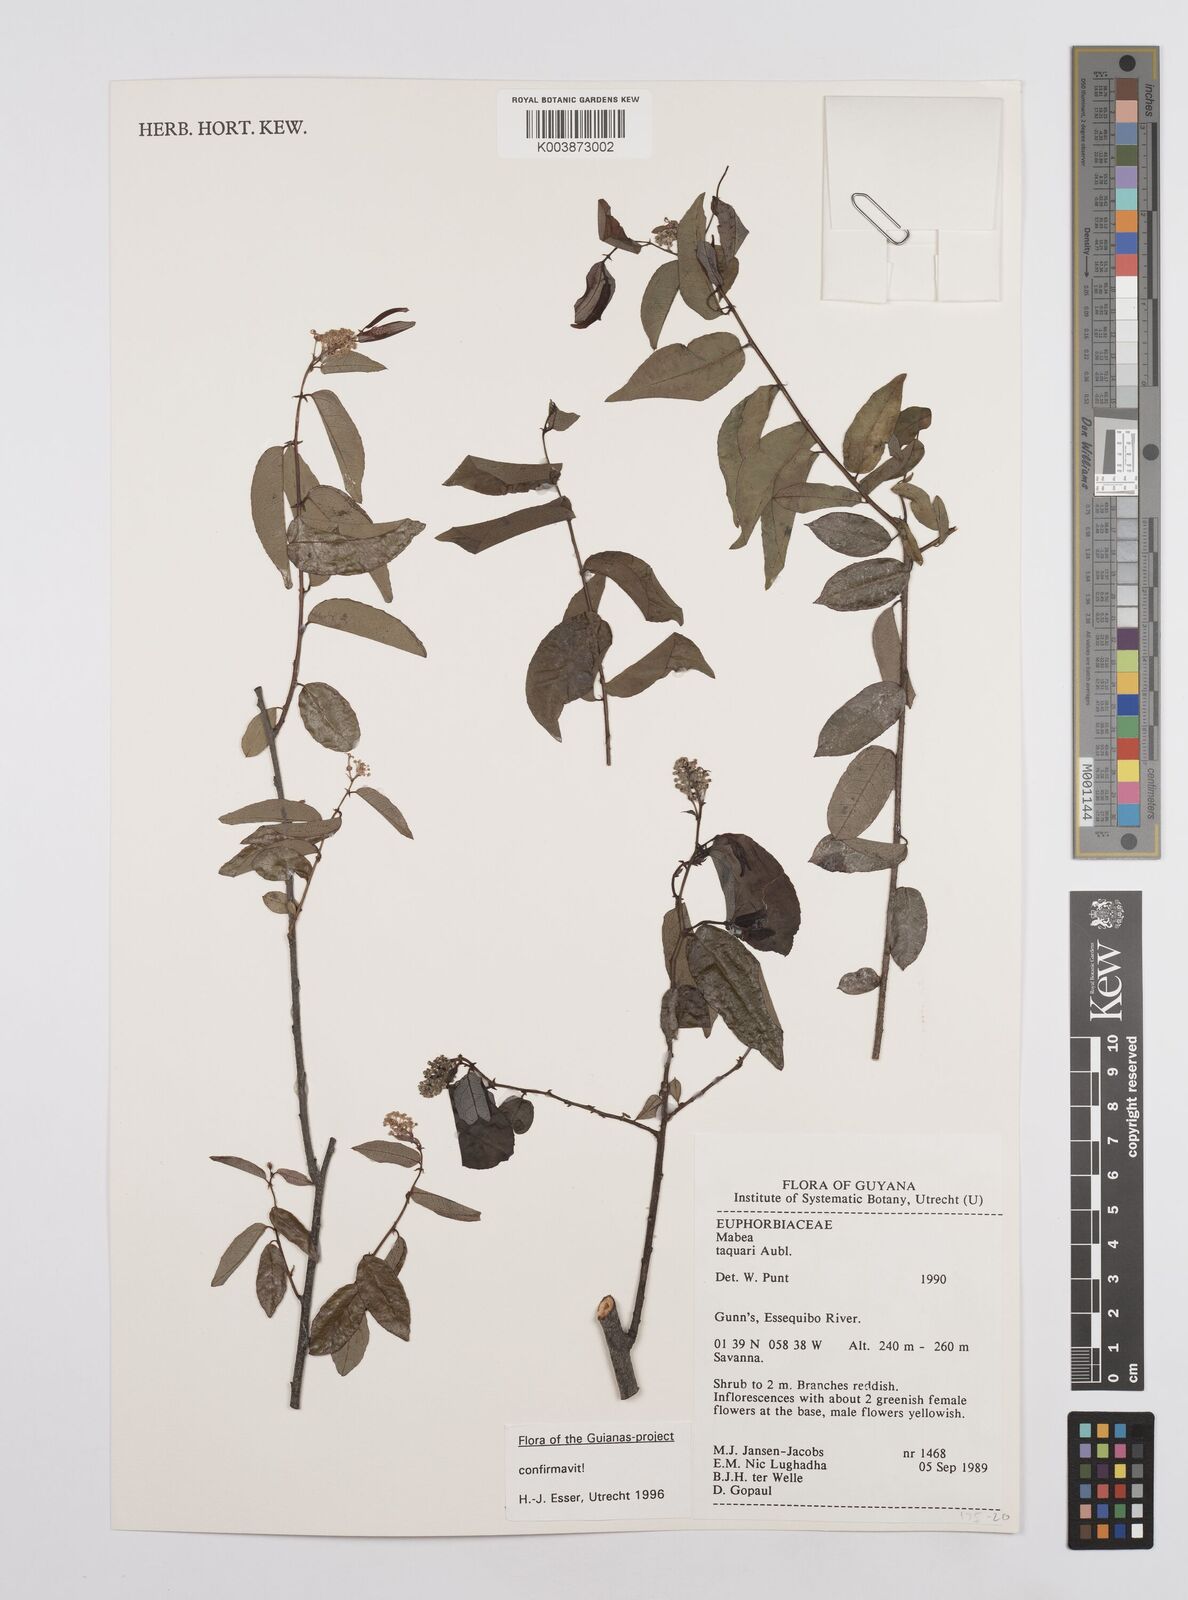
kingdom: Plantae
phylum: Tracheophyta
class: Magnoliopsida
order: Malpighiales
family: Euphorbiaceae
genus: Mabea
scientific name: Mabea taquari
